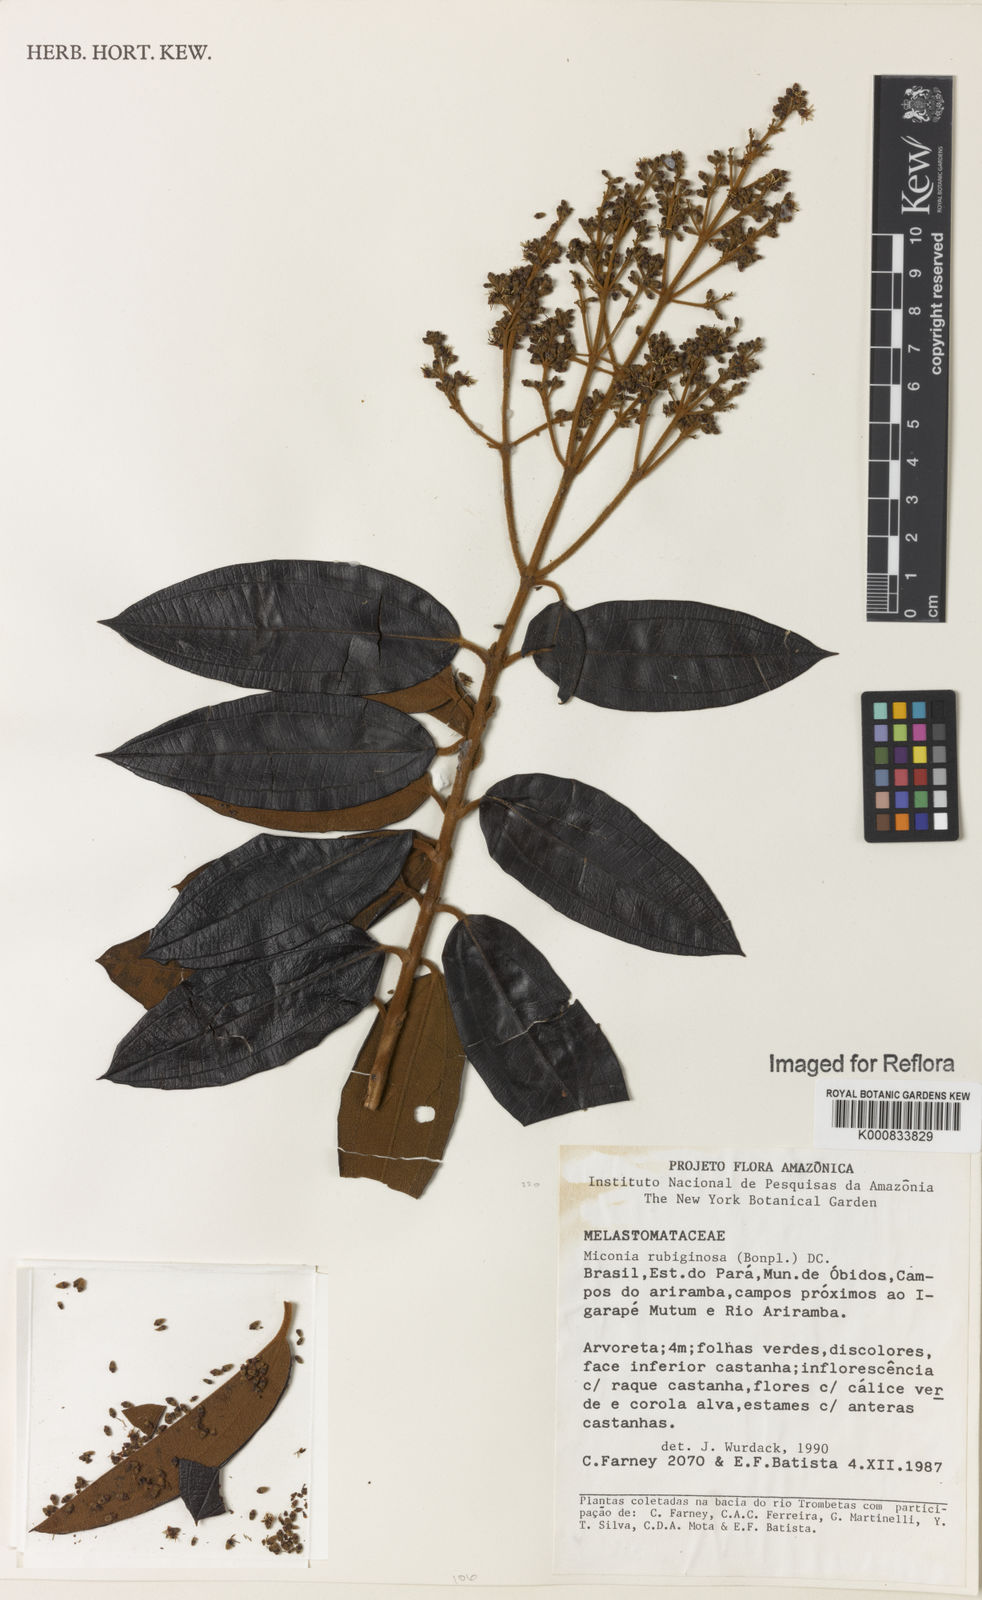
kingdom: Plantae
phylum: Tracheophyta
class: Magnoliopsida
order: Myrtales
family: Melastomataceae
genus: Miconia
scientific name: Miconia rubiginosa
